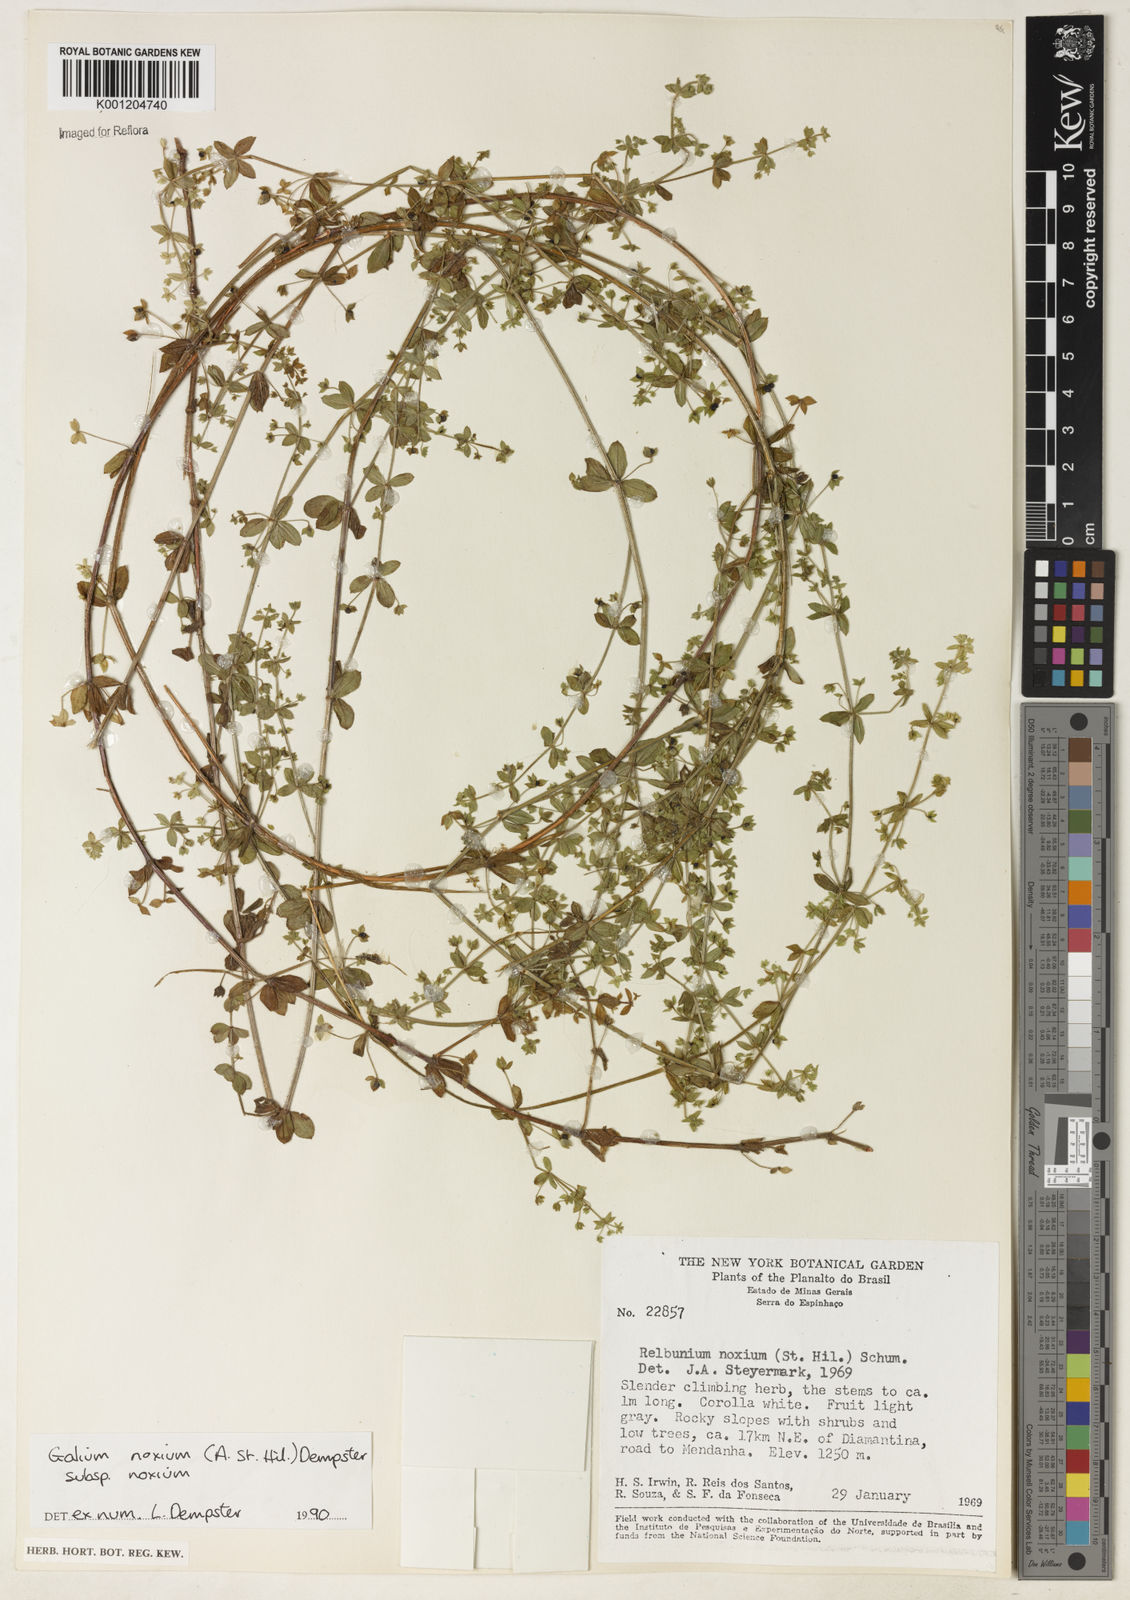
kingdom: Plantae
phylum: Tracheophyta
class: Magnoliopsida
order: Gentianales
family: Rubiaceae
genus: Galium
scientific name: Galium noxium
